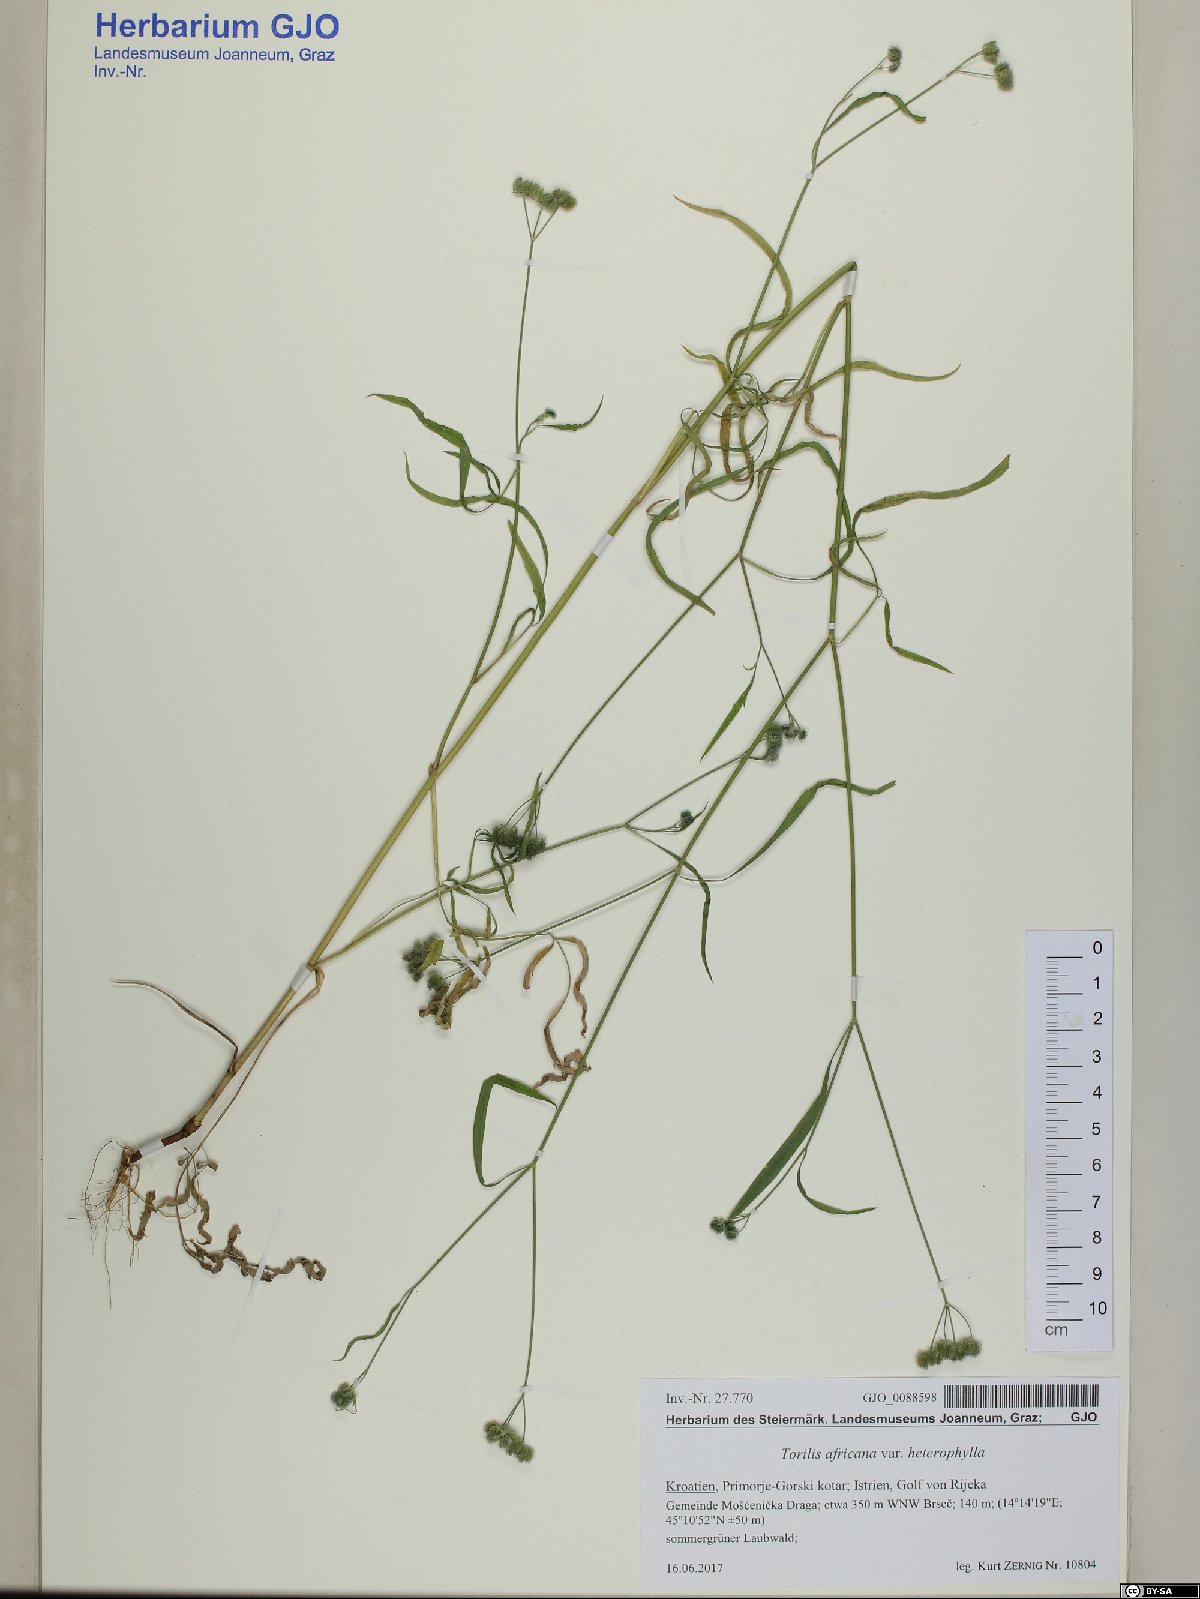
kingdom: Plantae
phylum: Tracheophyta
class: Magnoliopsida
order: Apiales
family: Apiaceae
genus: Torilis
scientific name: Torilis africana
